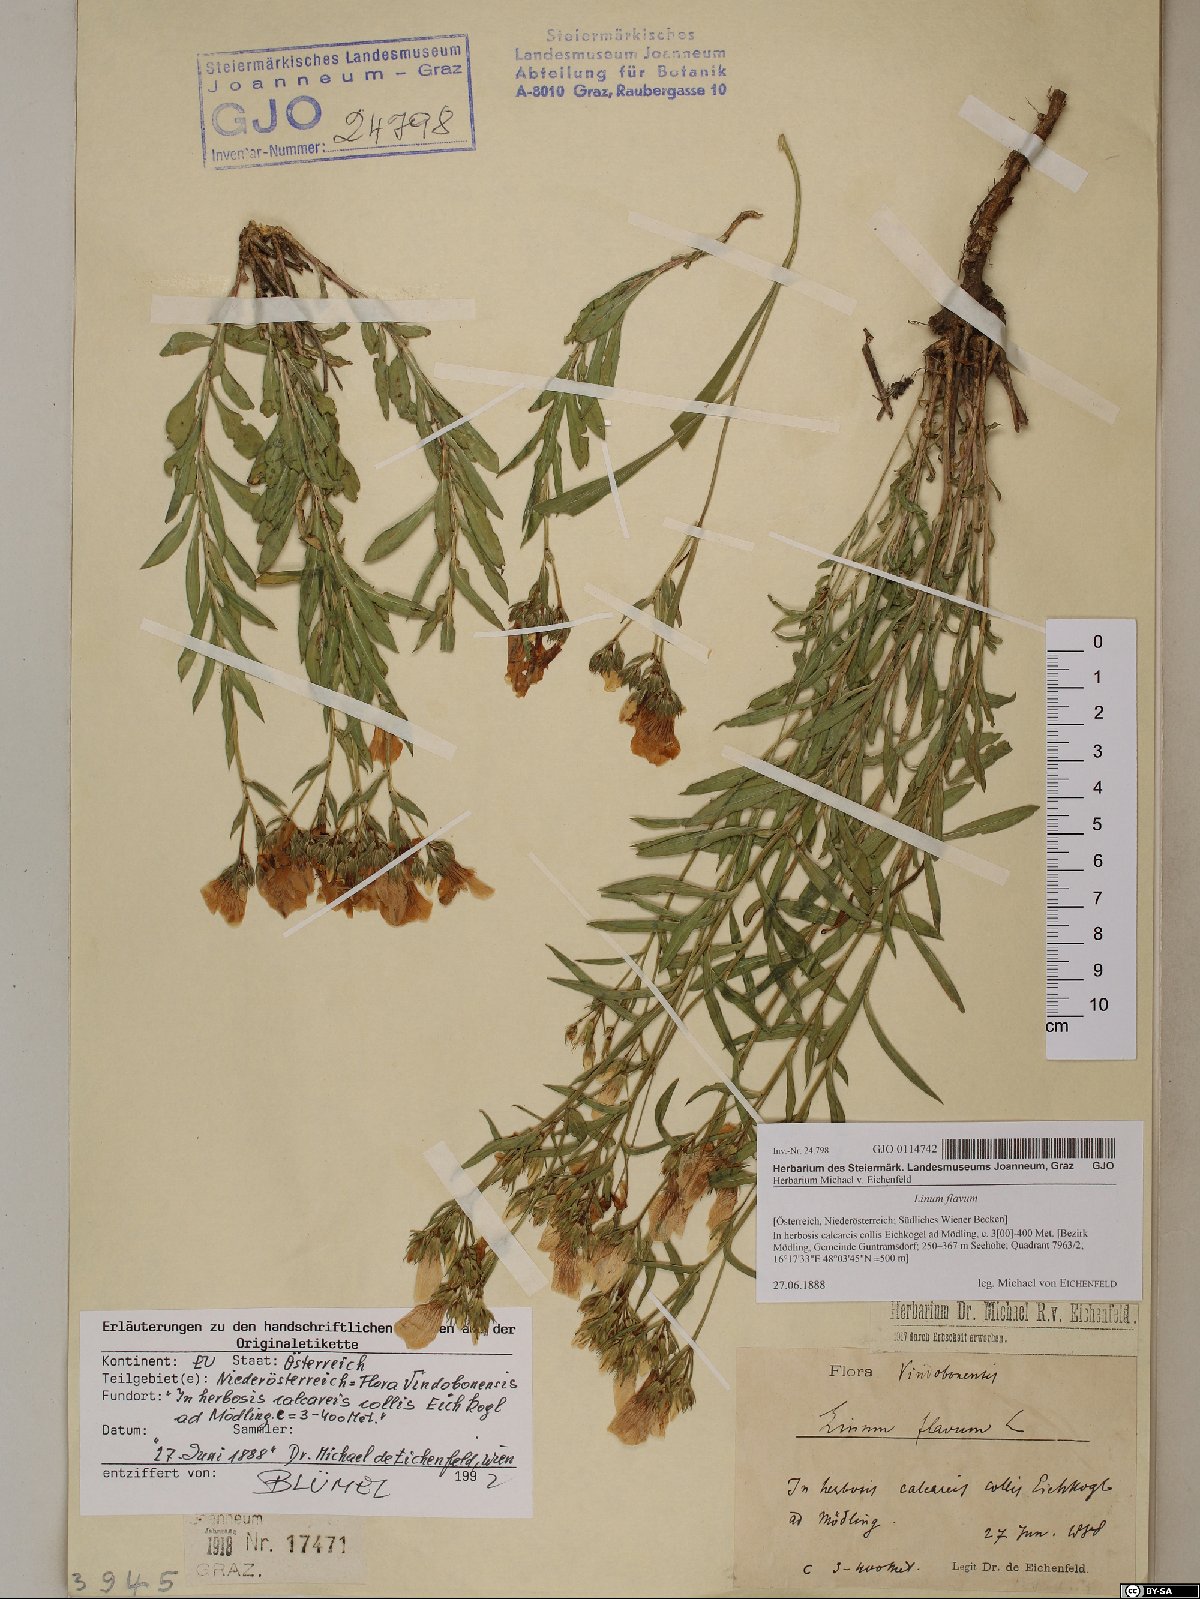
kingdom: Plantae
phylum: Tracheophyta
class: Magnoliopsida
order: Malpighiales
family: Linaceae
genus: Linum
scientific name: Linum flavum
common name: Yellow flax
